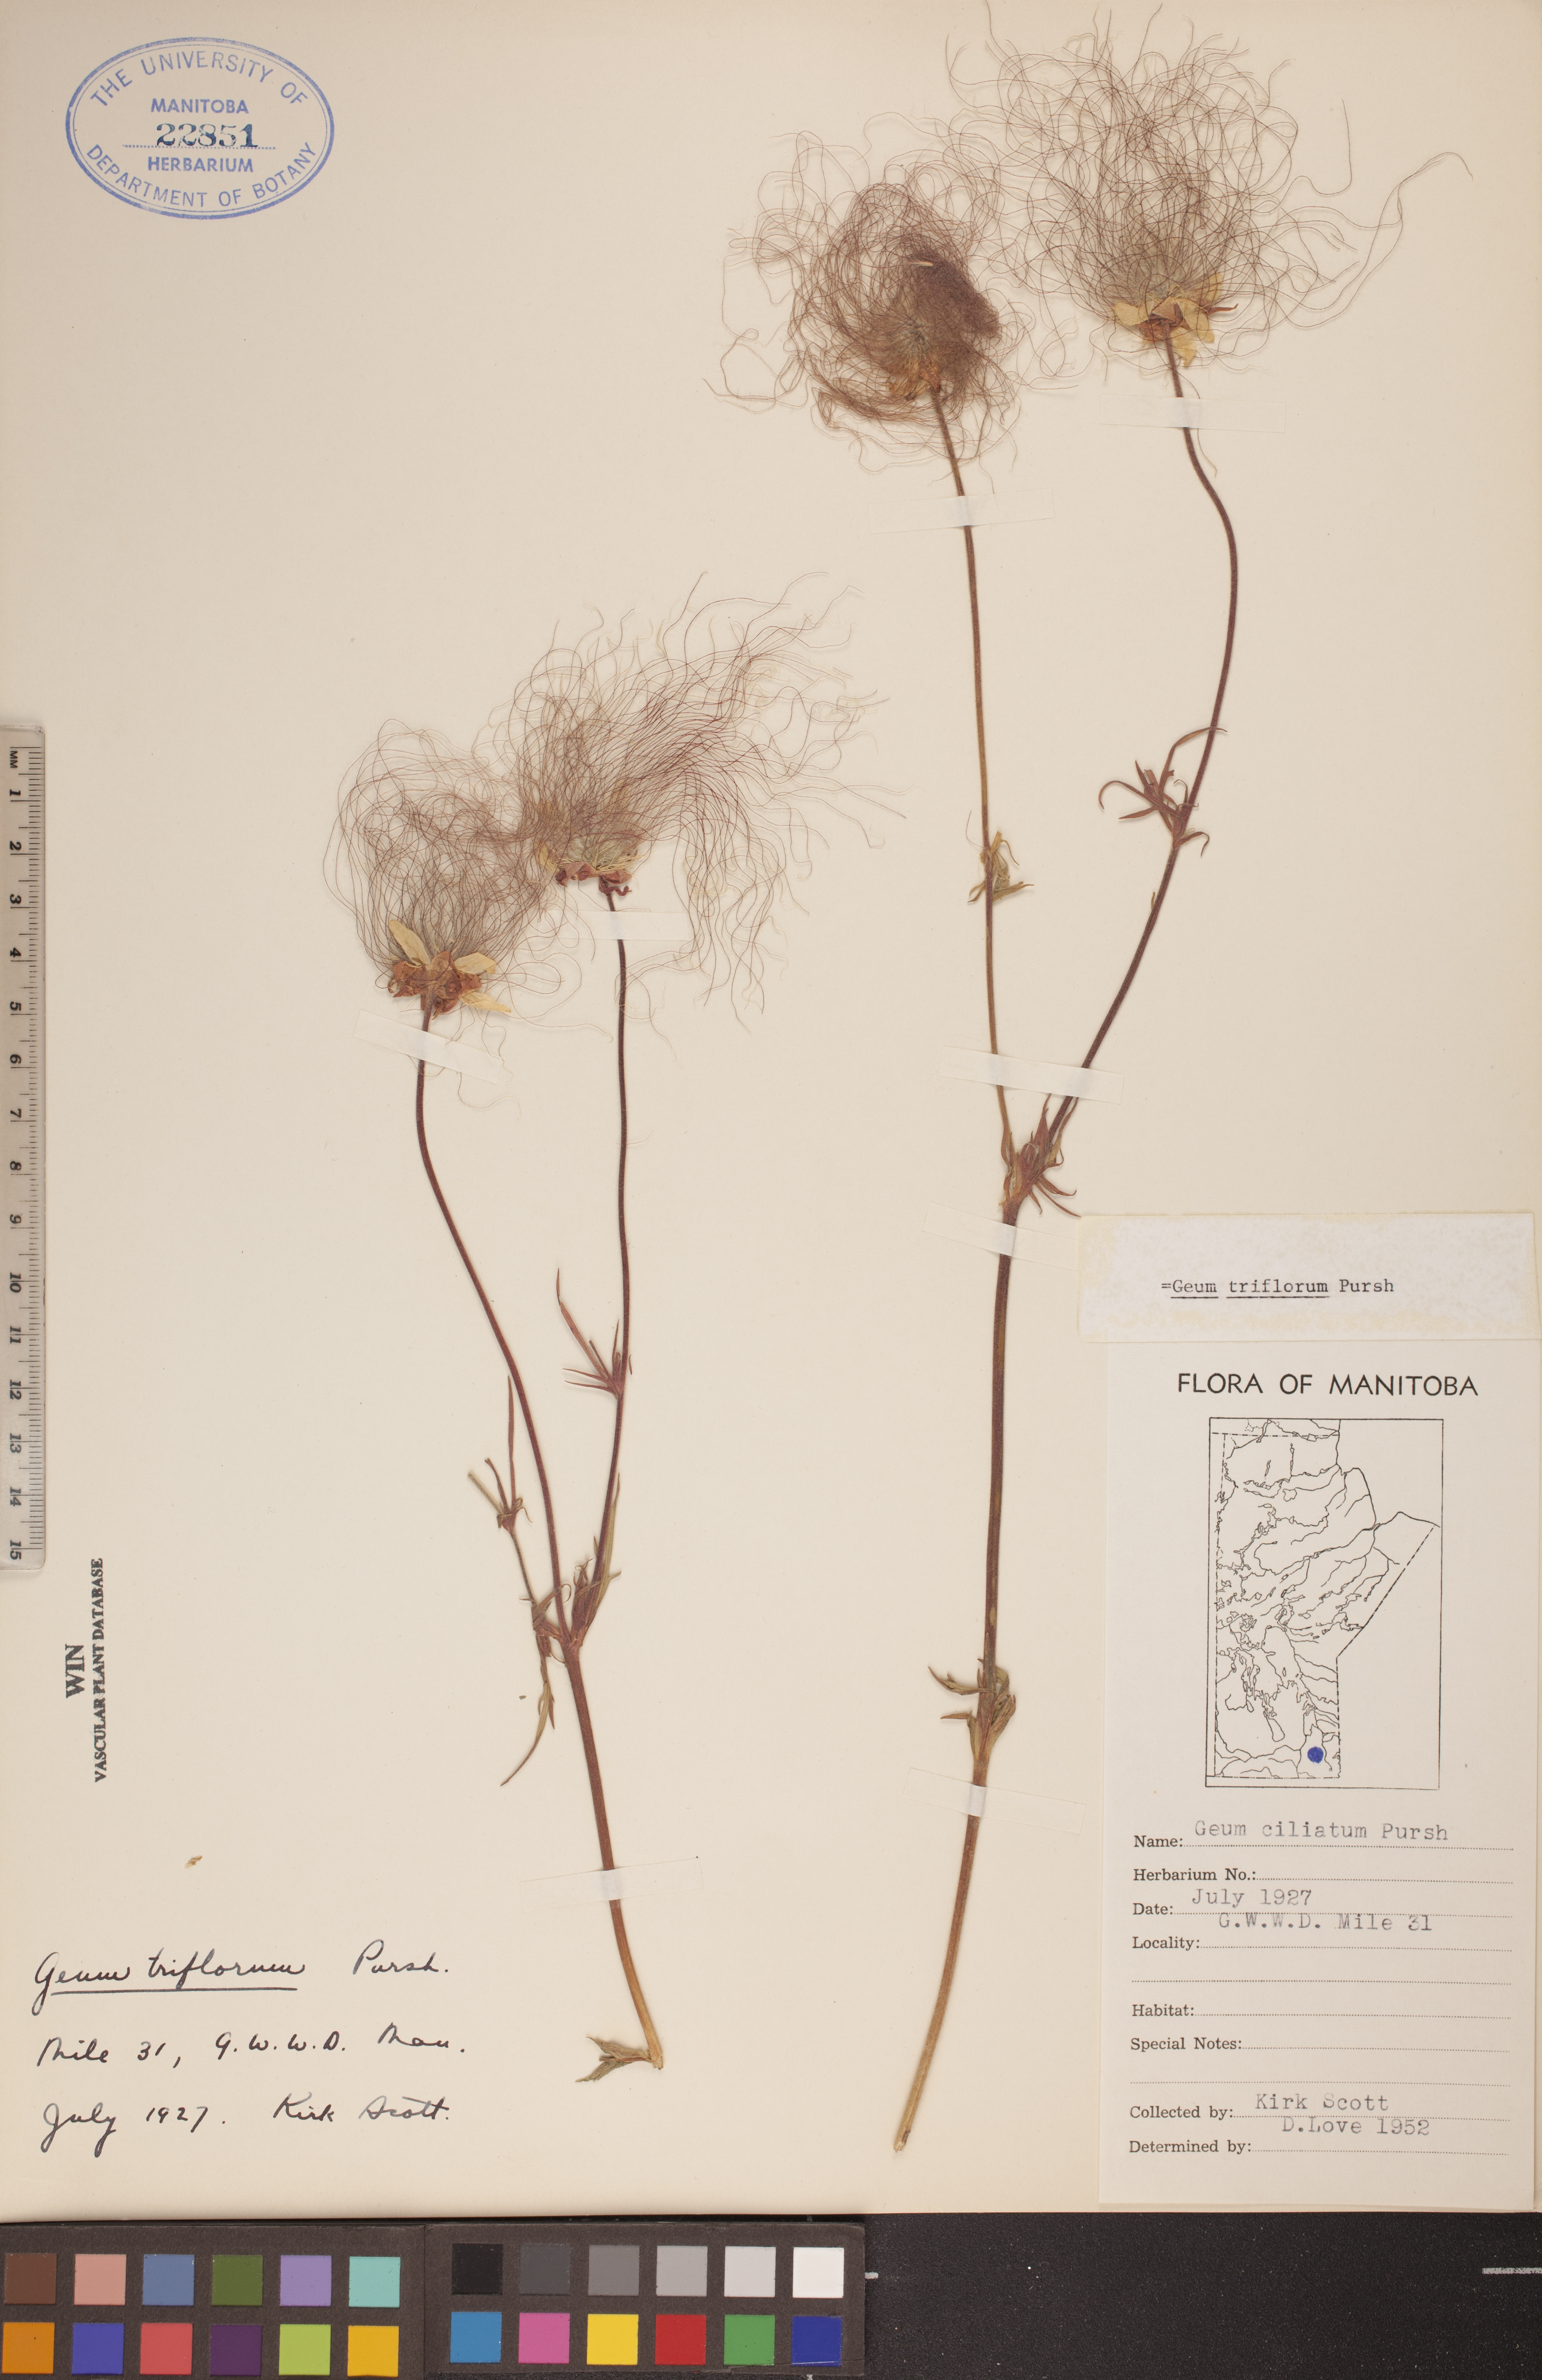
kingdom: Plantae
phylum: Tracheophyta
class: Magnoliopsida
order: Rosales
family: Rosaceae
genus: Geum
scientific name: Geum triflorum
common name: Old man's whiskers
